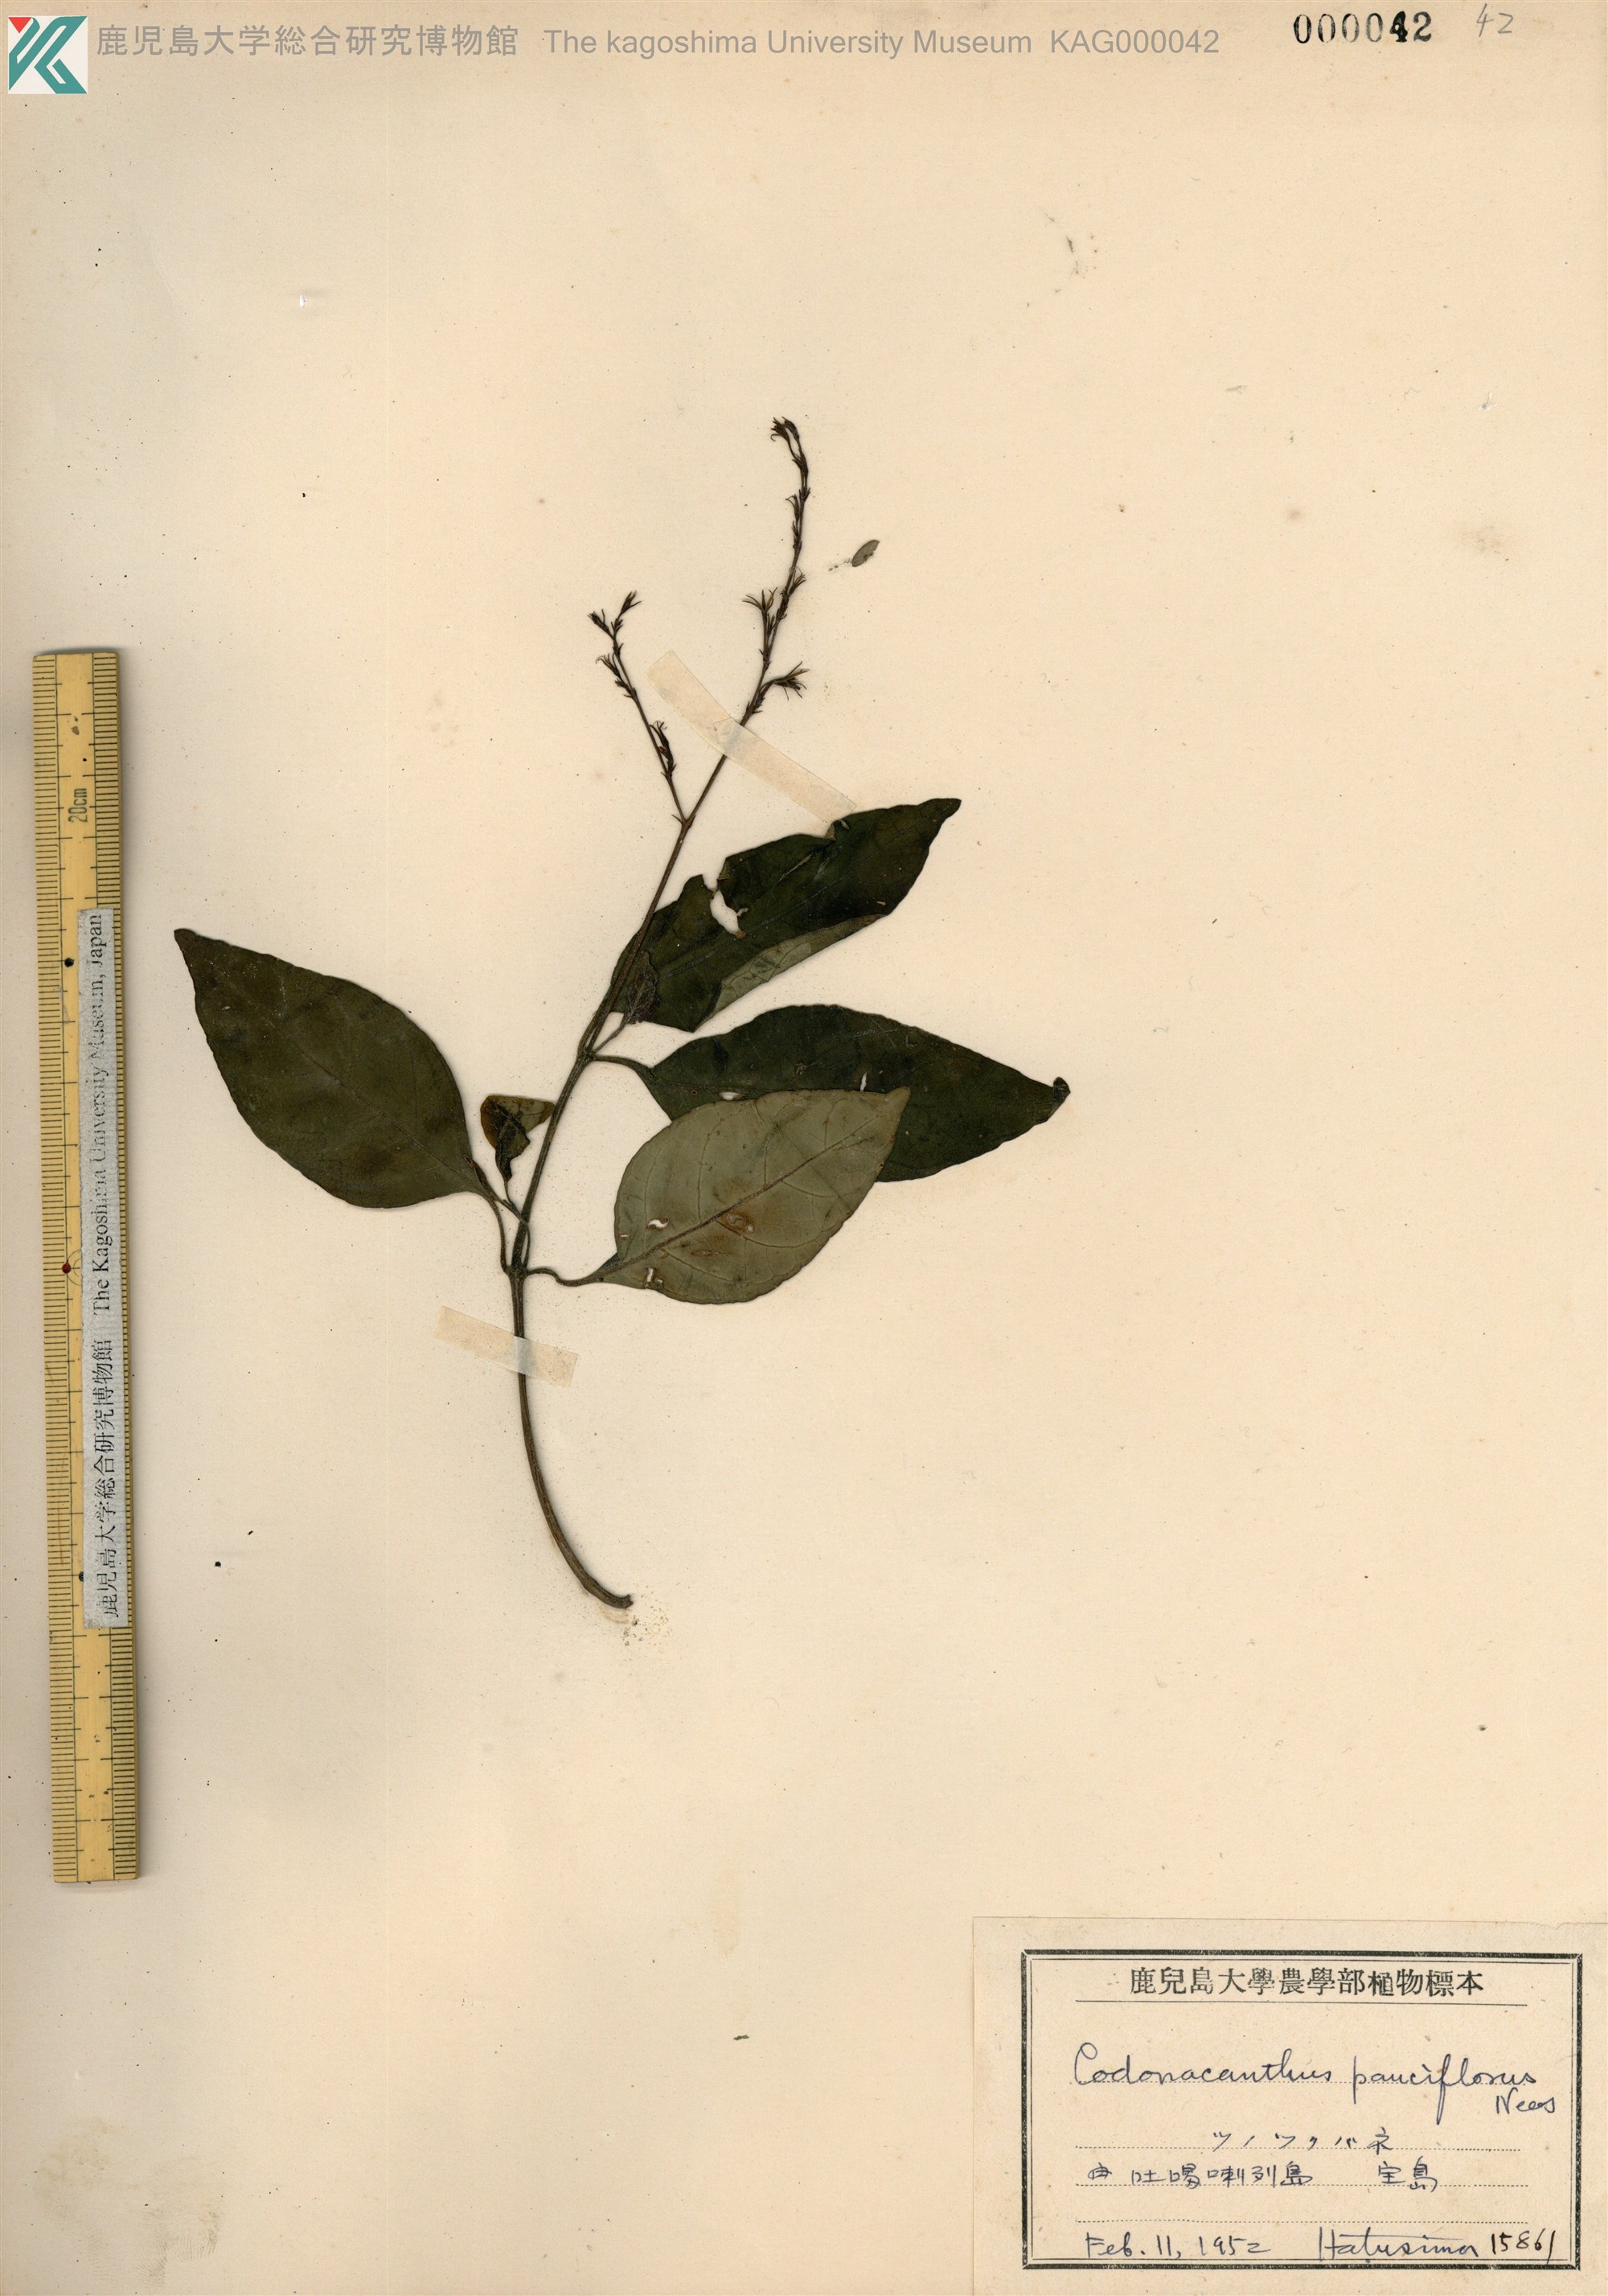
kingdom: Plantae
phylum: Tracheophyta
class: Magnoliopsida
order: Lamiales
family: Acanthaceae
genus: Codonacanthus
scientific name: Codonacanthus pauciflorus
